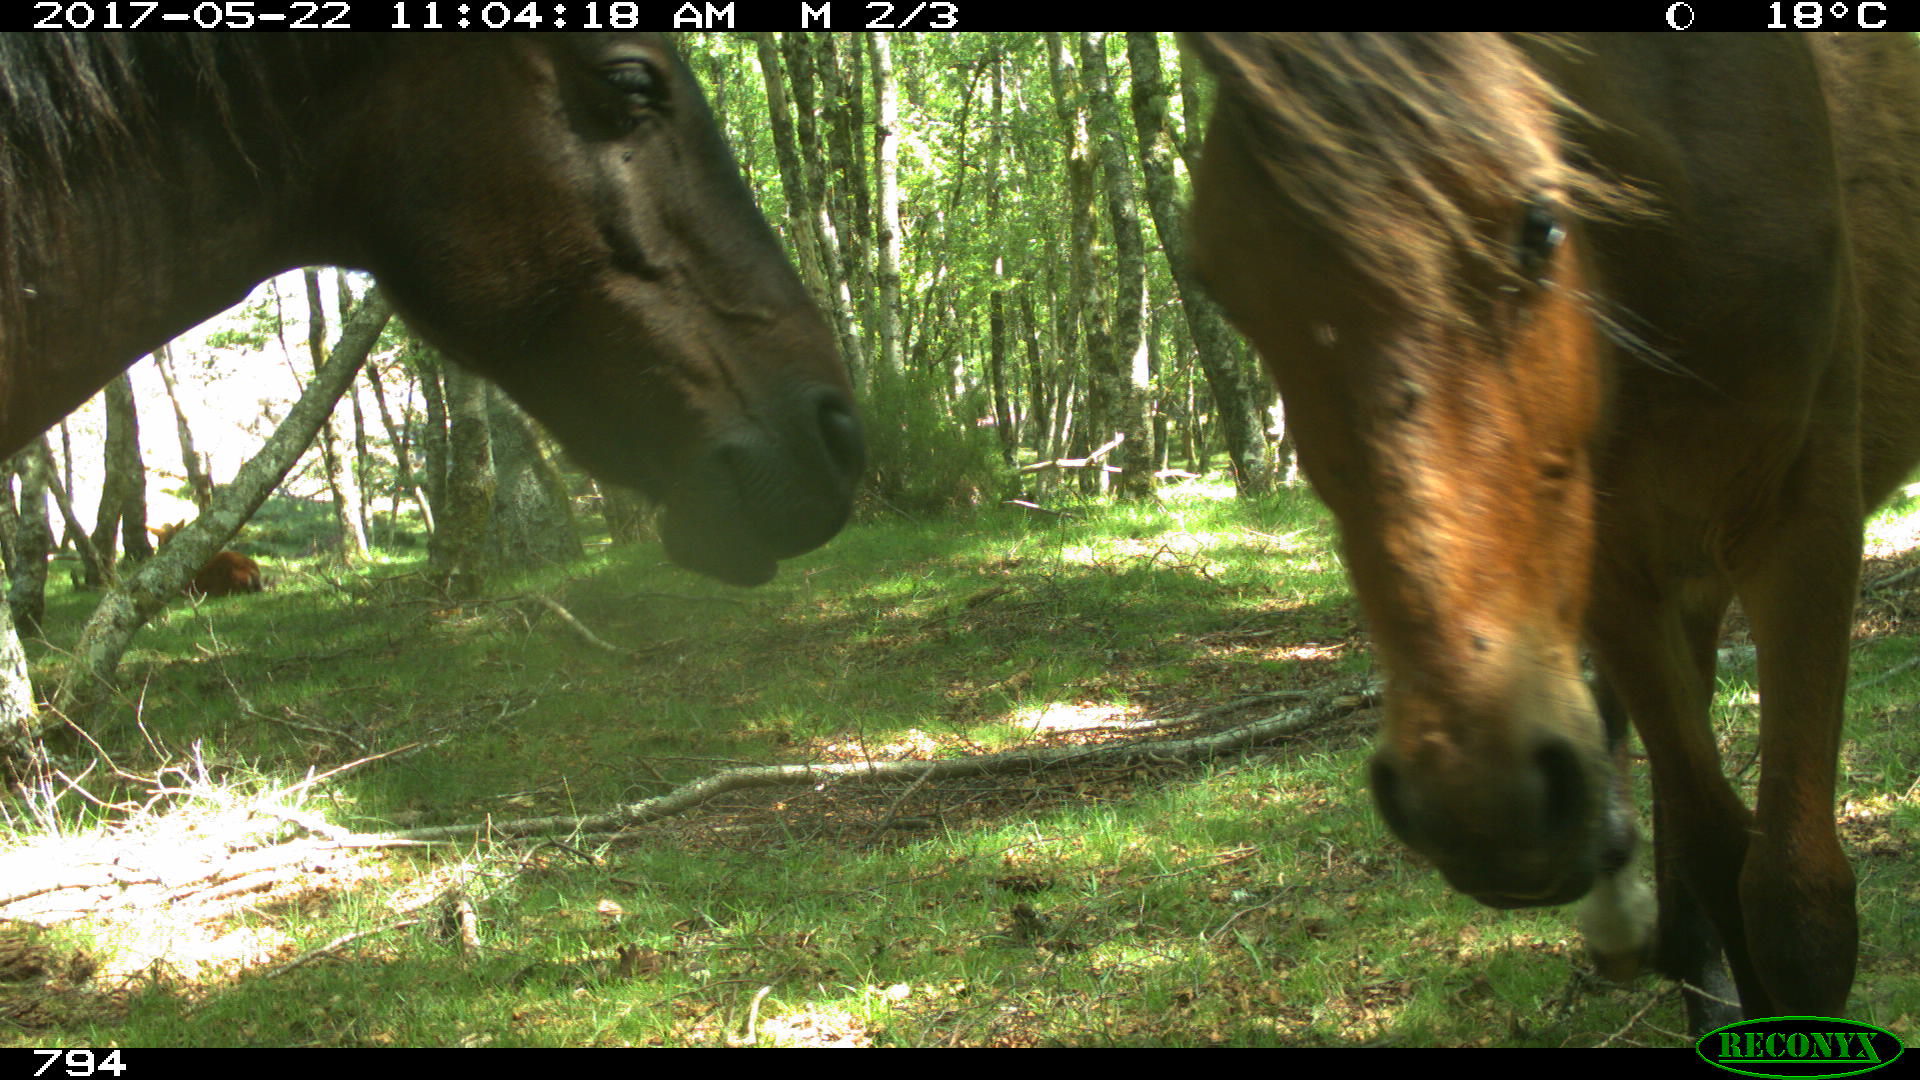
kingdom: Animalia
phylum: Chordata
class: Mammalia
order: Perissodactyla
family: Equidae
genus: Equus
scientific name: Equus caballus
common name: Horse
